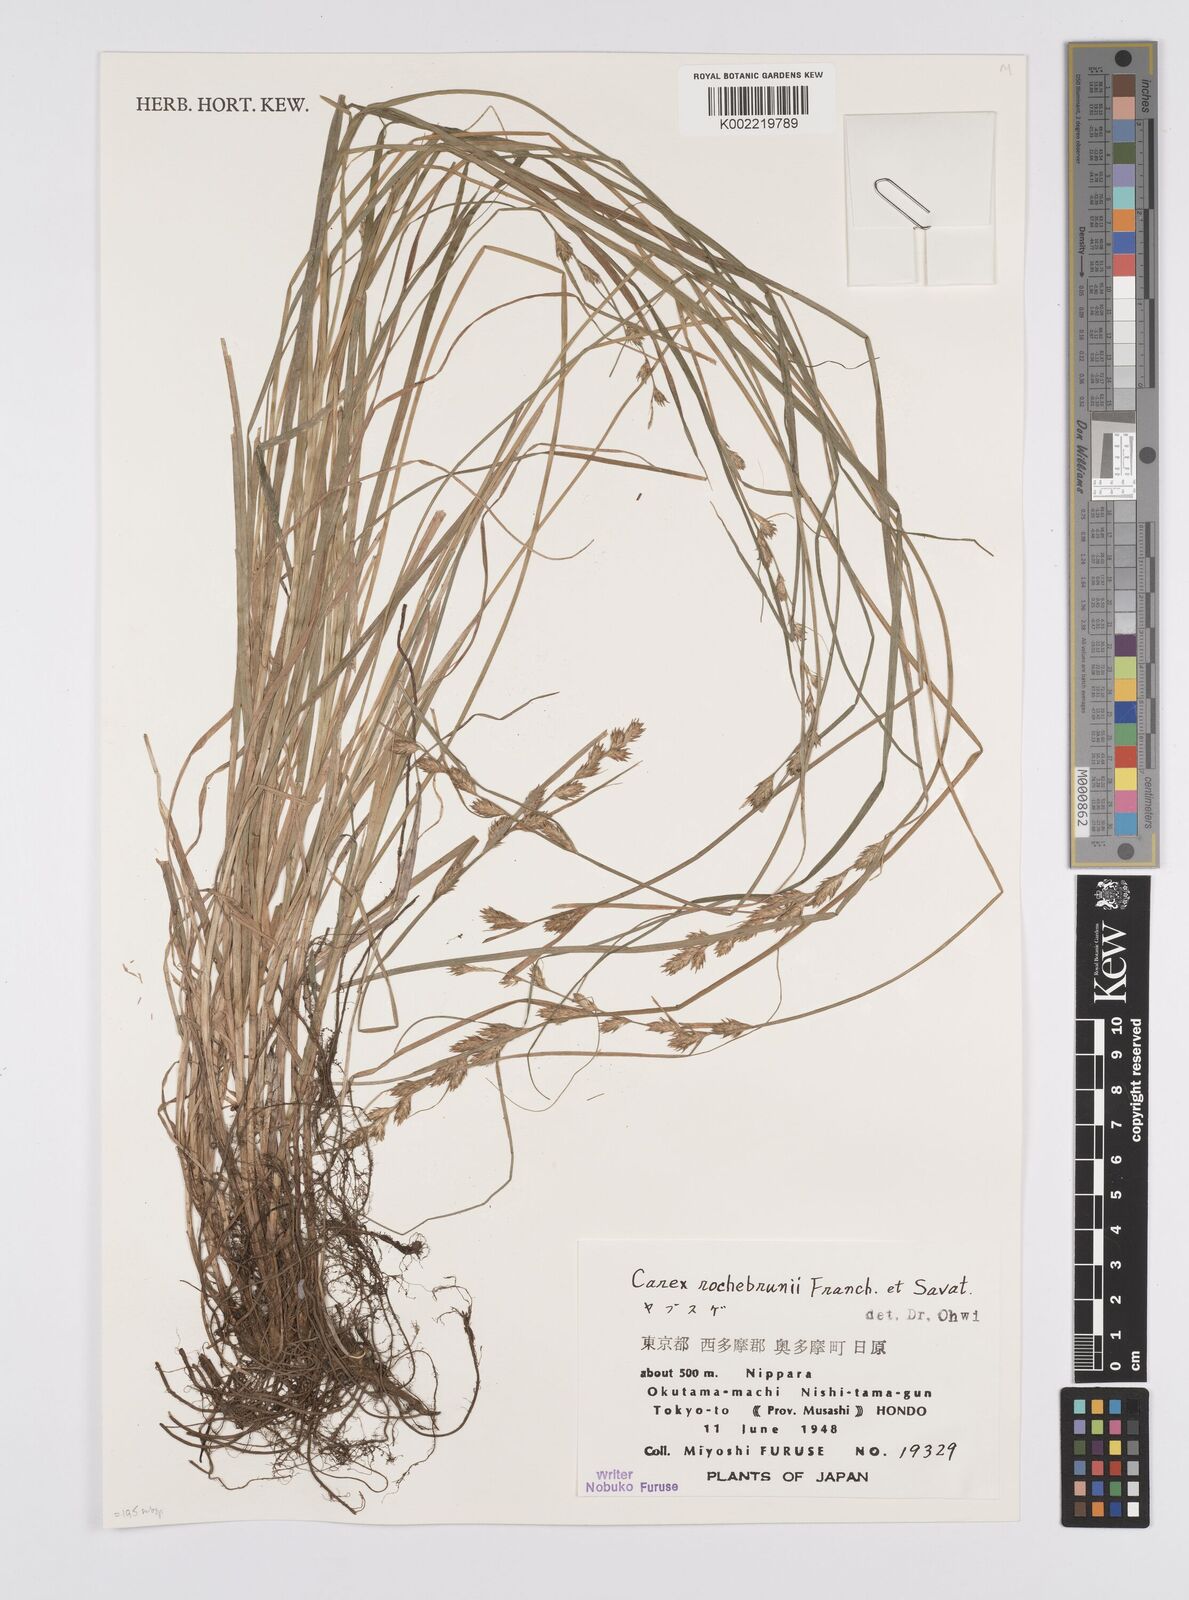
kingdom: Plantae
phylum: Tracheophyta
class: Liliopsida
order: Poales
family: Cyperaceae
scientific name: Cyperaceae
